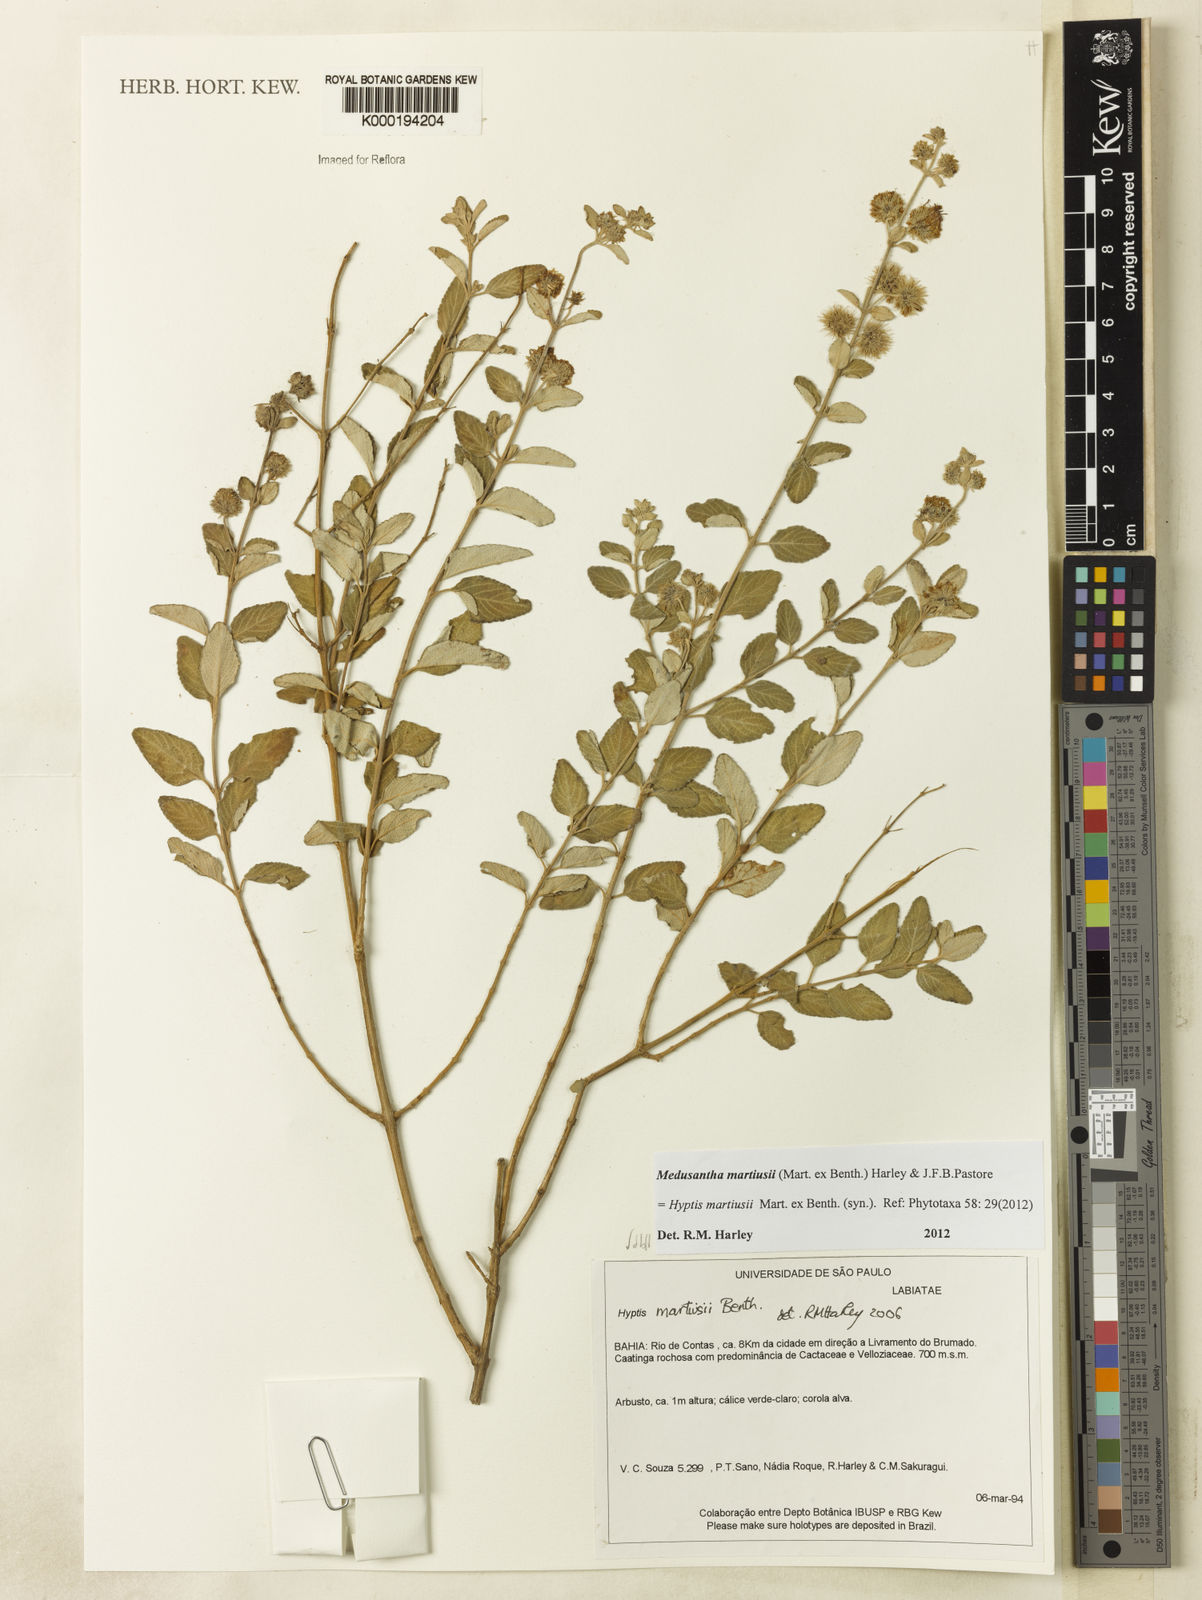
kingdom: Plantae
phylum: Tracheophyta
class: Magnoliopsida
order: Lamiales
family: Lamiaceae
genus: Medusantha
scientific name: Medusantha martiusii
